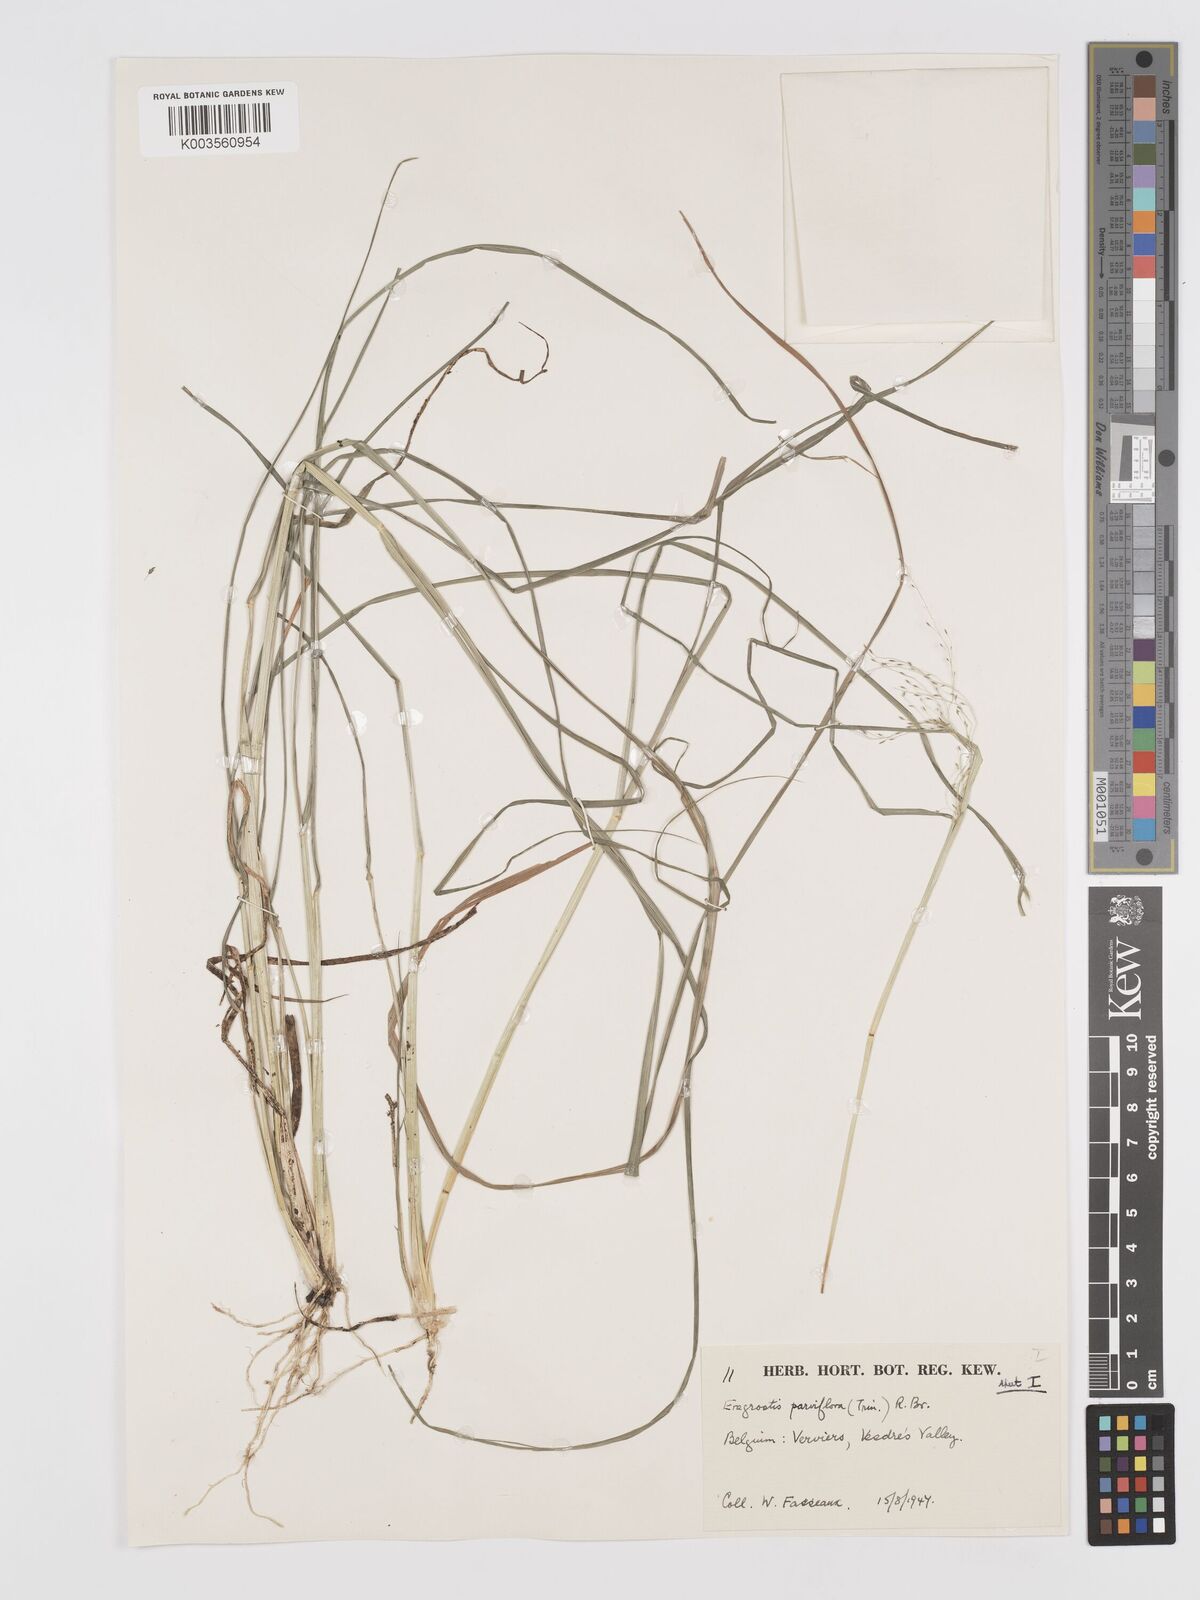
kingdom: Plantae
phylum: Tracheophyta
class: Liliopsida
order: Poales
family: Poaceae
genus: Eragrostis
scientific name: Eragrostis parviflora
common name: Weeping love-grass
